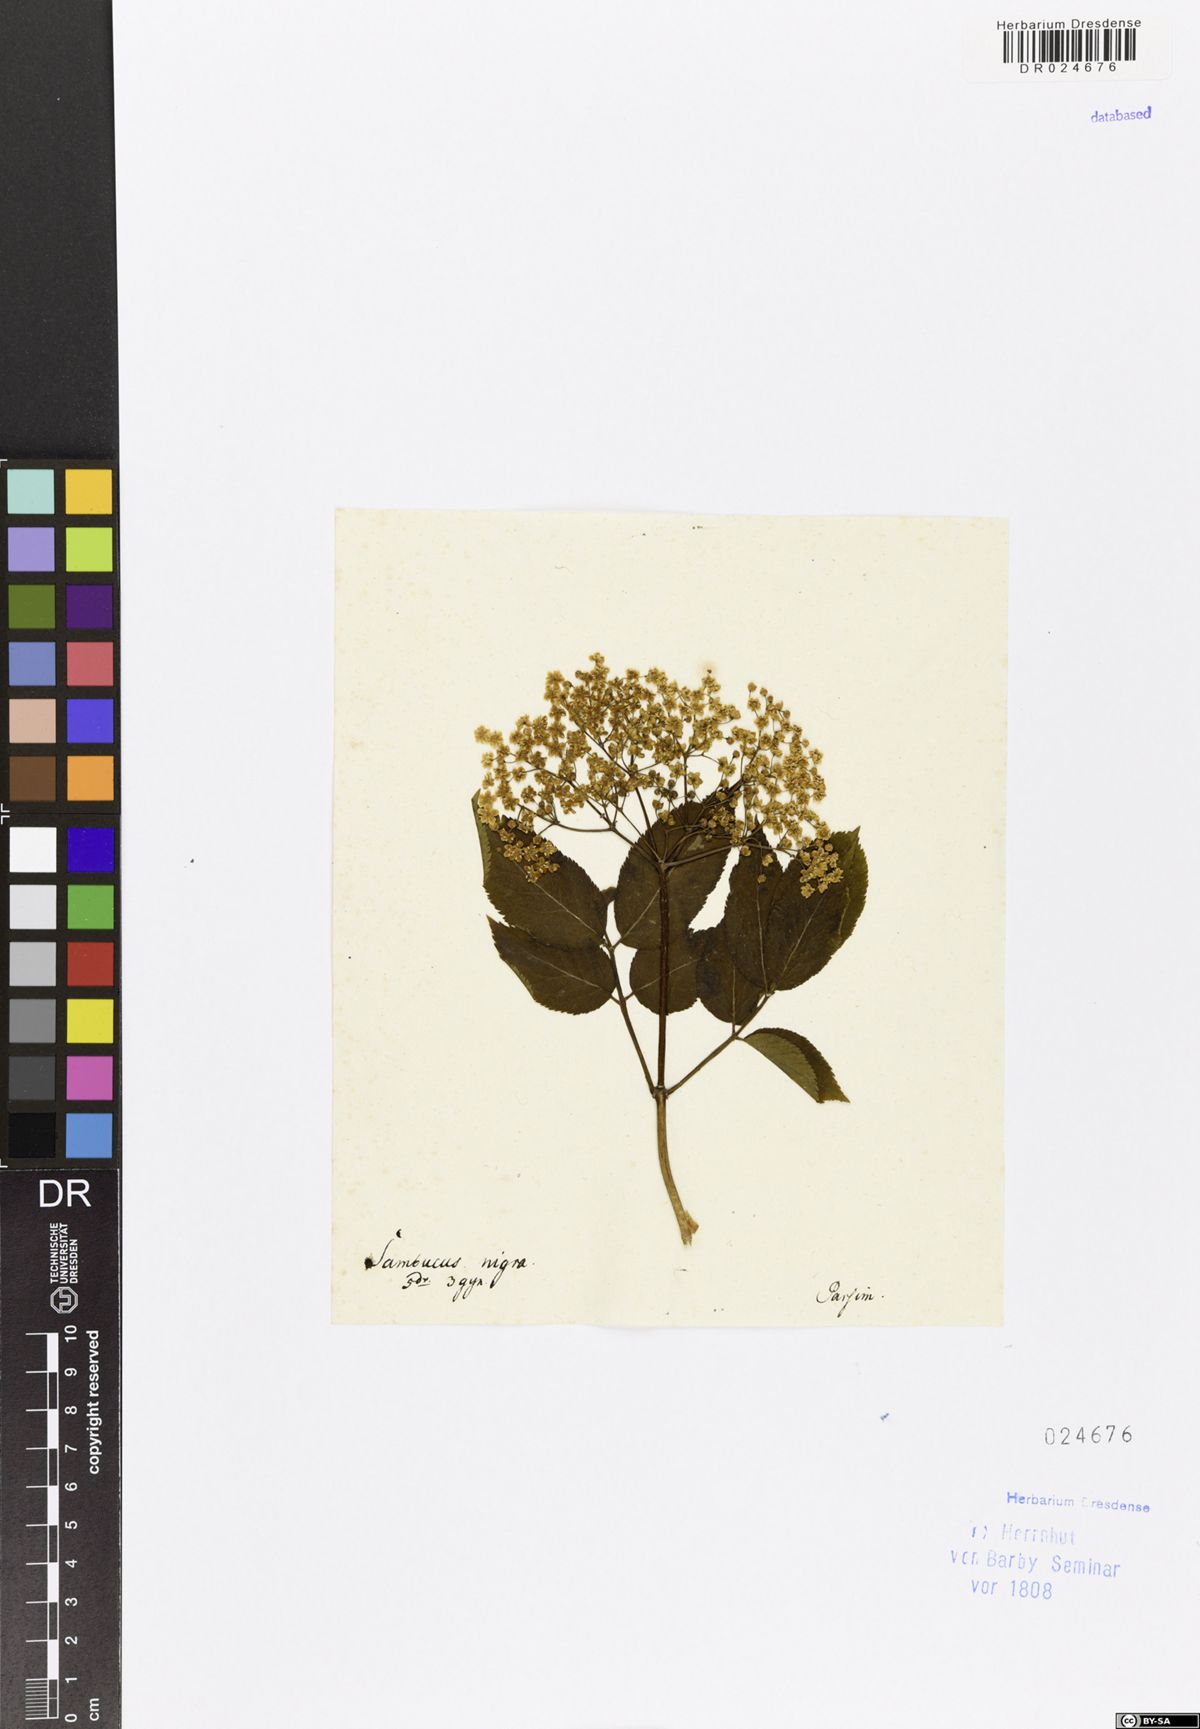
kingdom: Plantae
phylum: Tracheophyta
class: Magnoliopsida
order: Dipsacales
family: Viburnaceae
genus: Sambucus
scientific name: Sambucus nigra
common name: Elder
